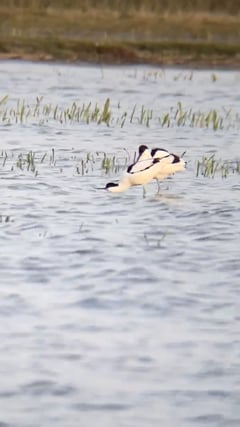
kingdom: Animalia
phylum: Chordata
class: Aves
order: Charadriiformes
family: Recurvirostridae
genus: Recurvirostra
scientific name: Recurvirostra avosetta
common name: Pied avocet
